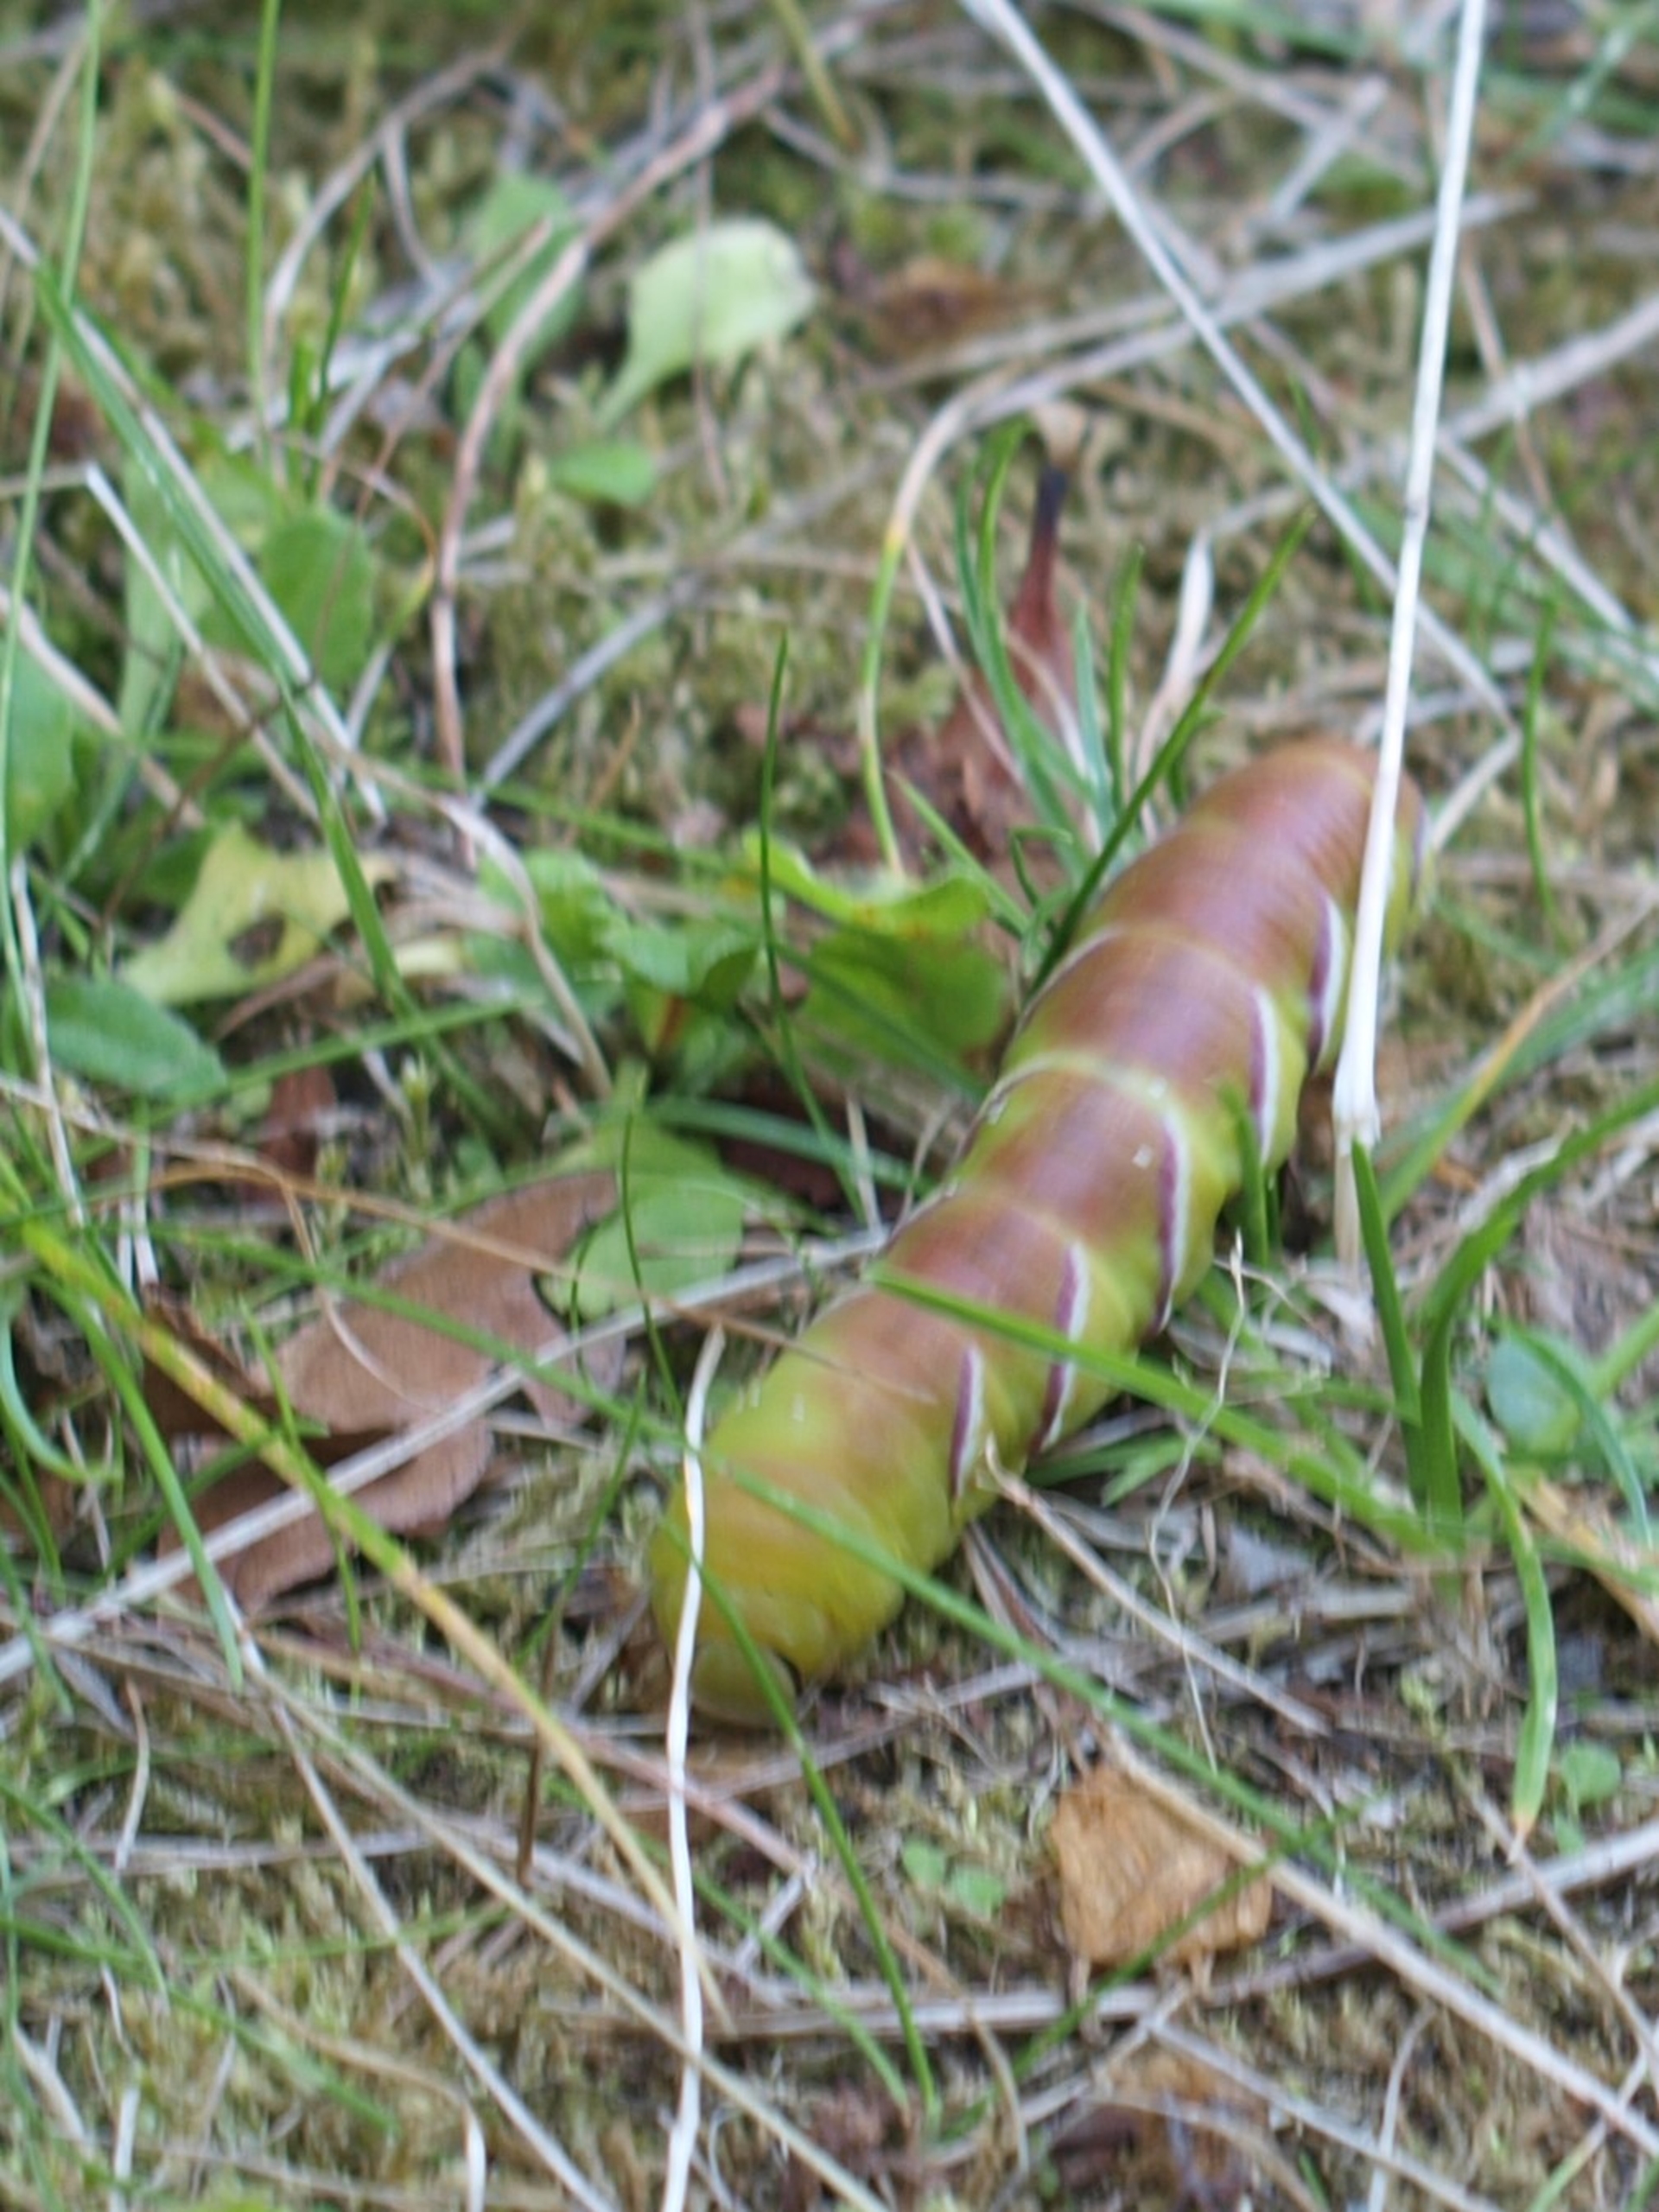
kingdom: Animalia
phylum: Arthropoda
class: Insecta
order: Lepidoptera
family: Sphingidae
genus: Sphinx
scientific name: Sphinx ligustri
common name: Ligustersværmer
